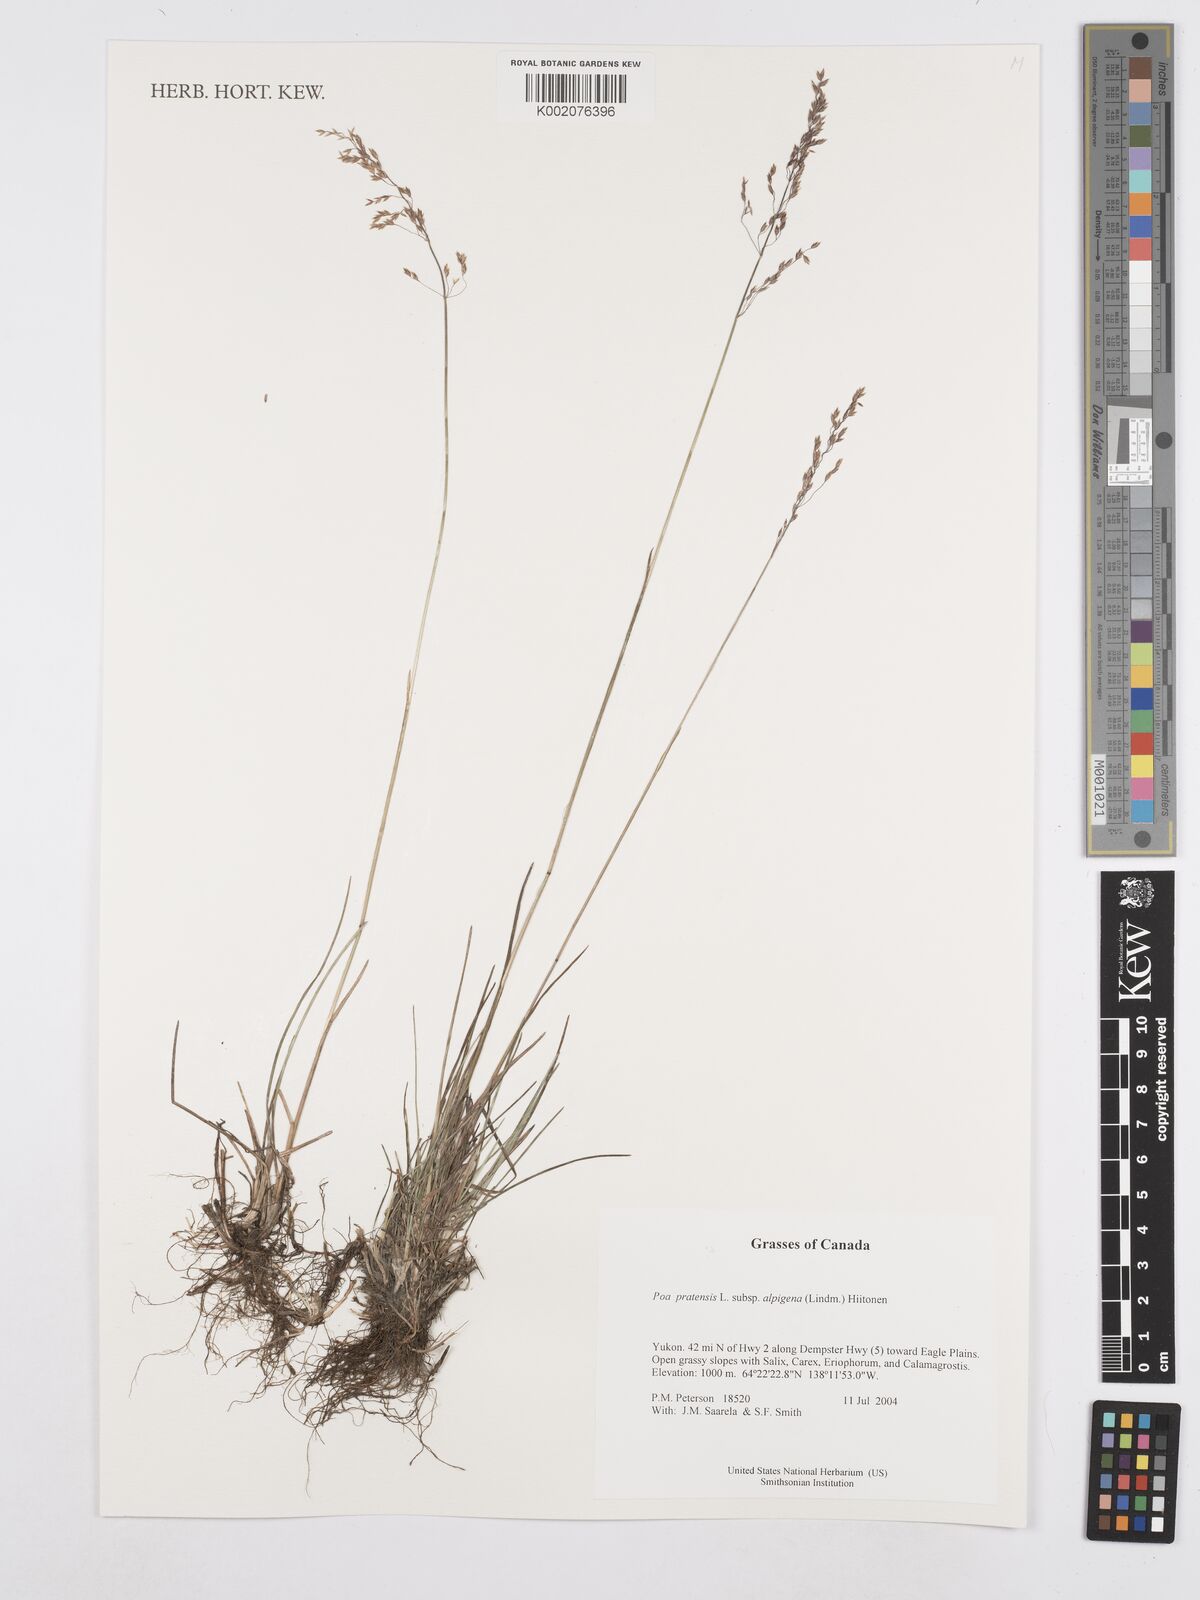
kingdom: Plantae
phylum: Tracheophyta
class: Liliopsida
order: Poales
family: Poaceae
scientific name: Poaceae
